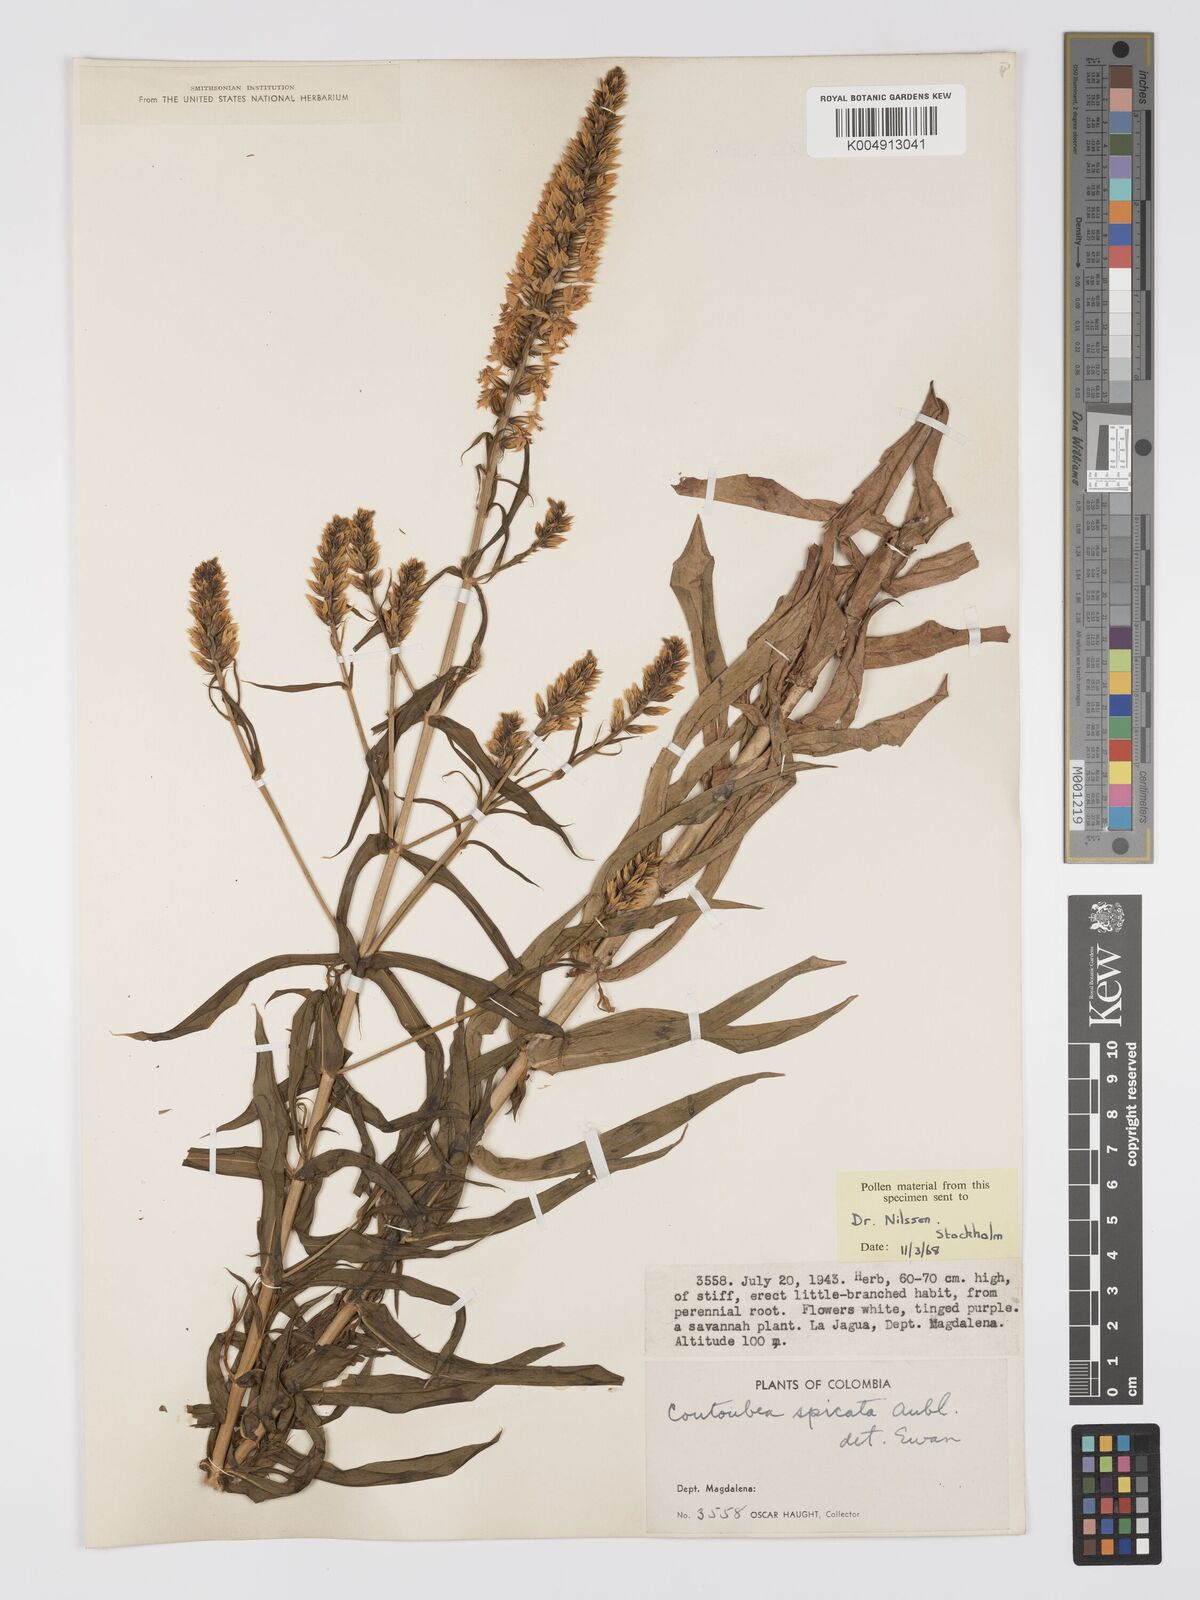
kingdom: Plantae
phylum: Tracheophyta
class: Magnoliopsida
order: Gentianales
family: Gentianaceae
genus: Coutoubea
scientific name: Coutoubea spicata
